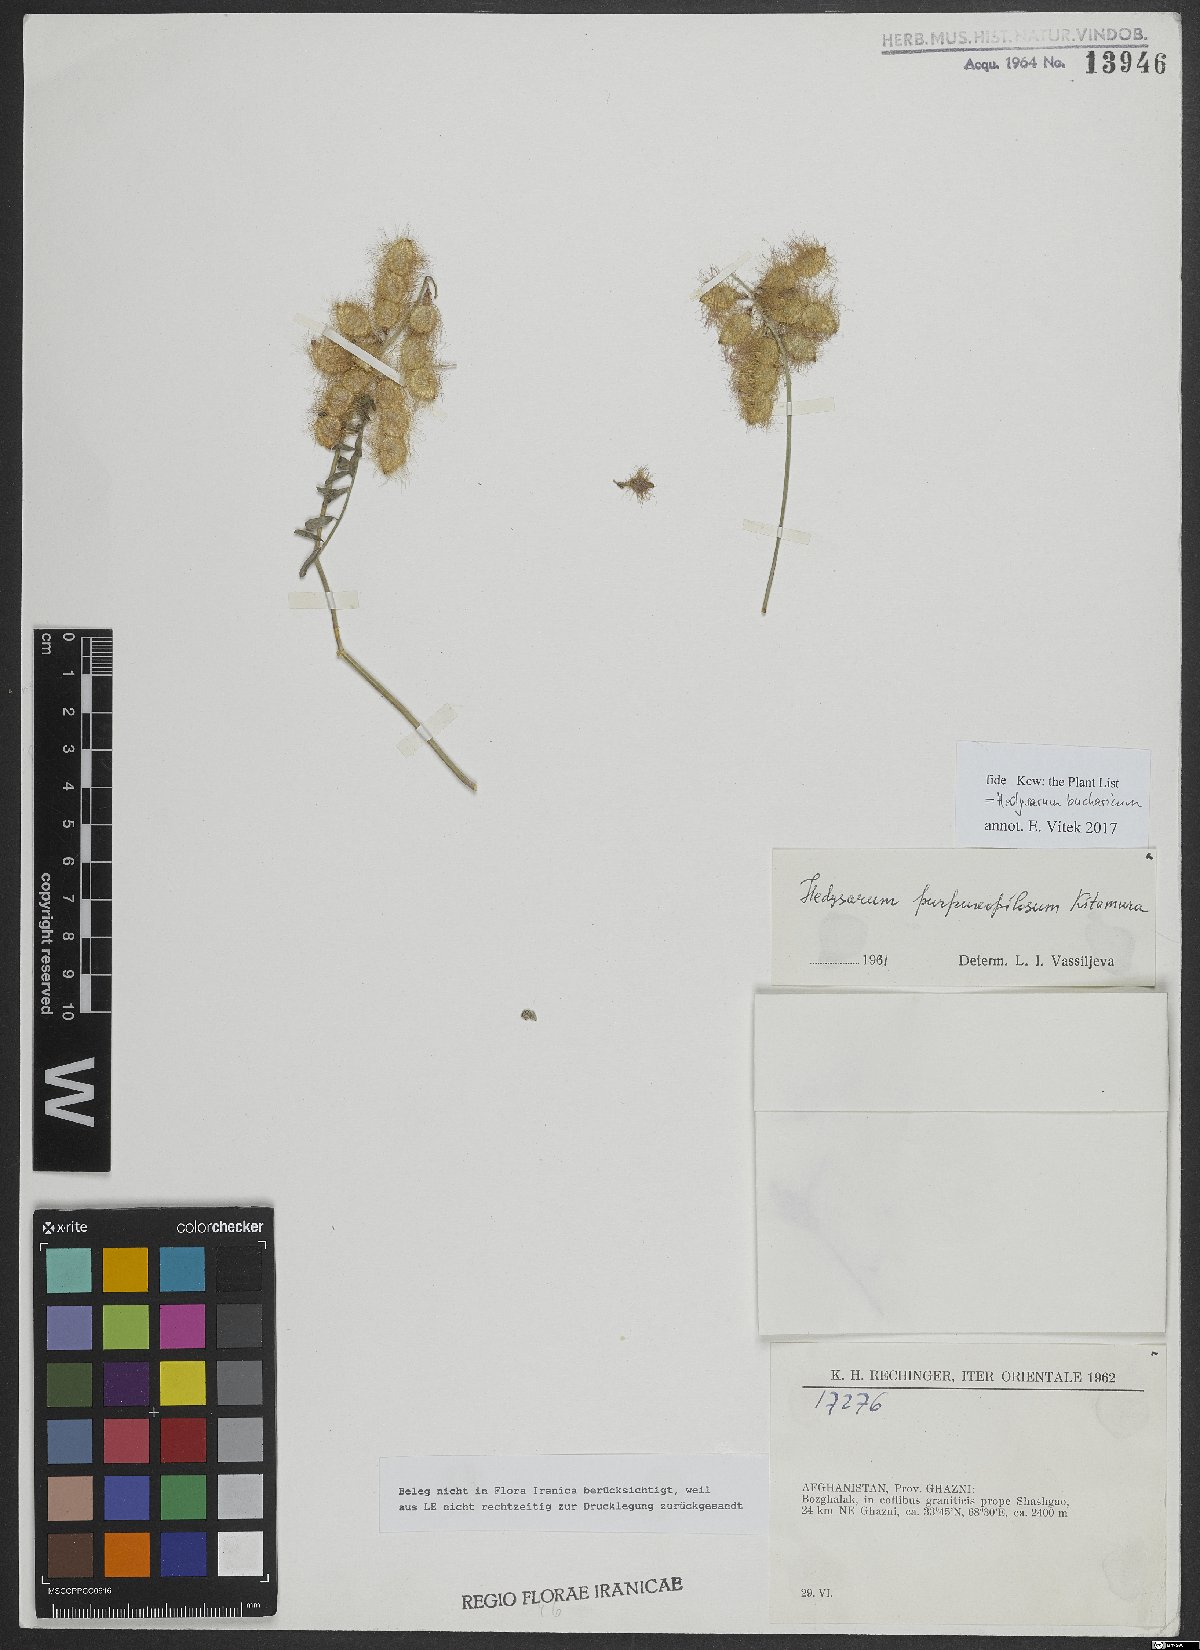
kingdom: Plantae
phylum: Tracheophyta
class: Magnoliopsida
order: Fabales
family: Fabaceae
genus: Hedysarum
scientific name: Hedysarum bucharicum
